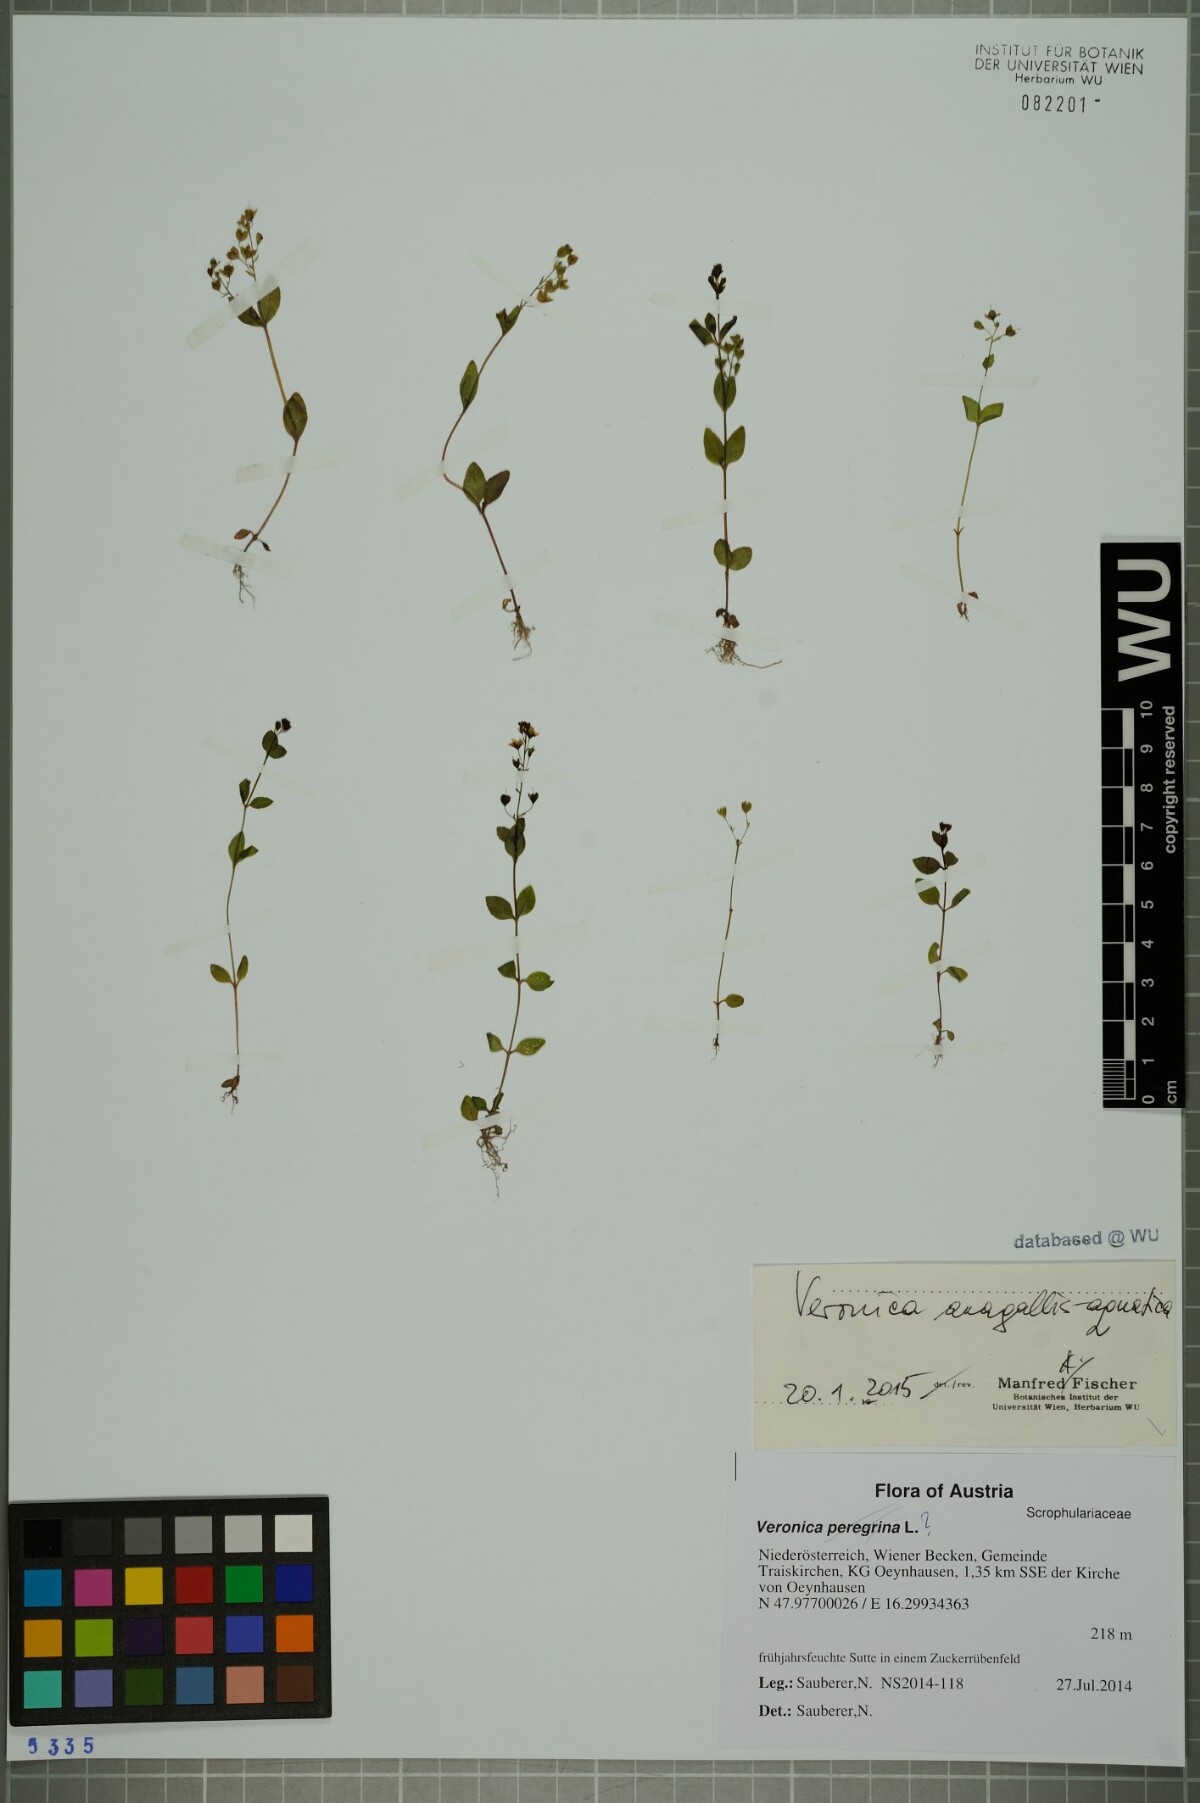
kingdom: Plantae
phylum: Tracheophyta
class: Magnoliopsida
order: Lamiales
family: Plantaginaceae
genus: Veronica
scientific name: Veronica anagallis-aquatica
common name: Water speedwell
